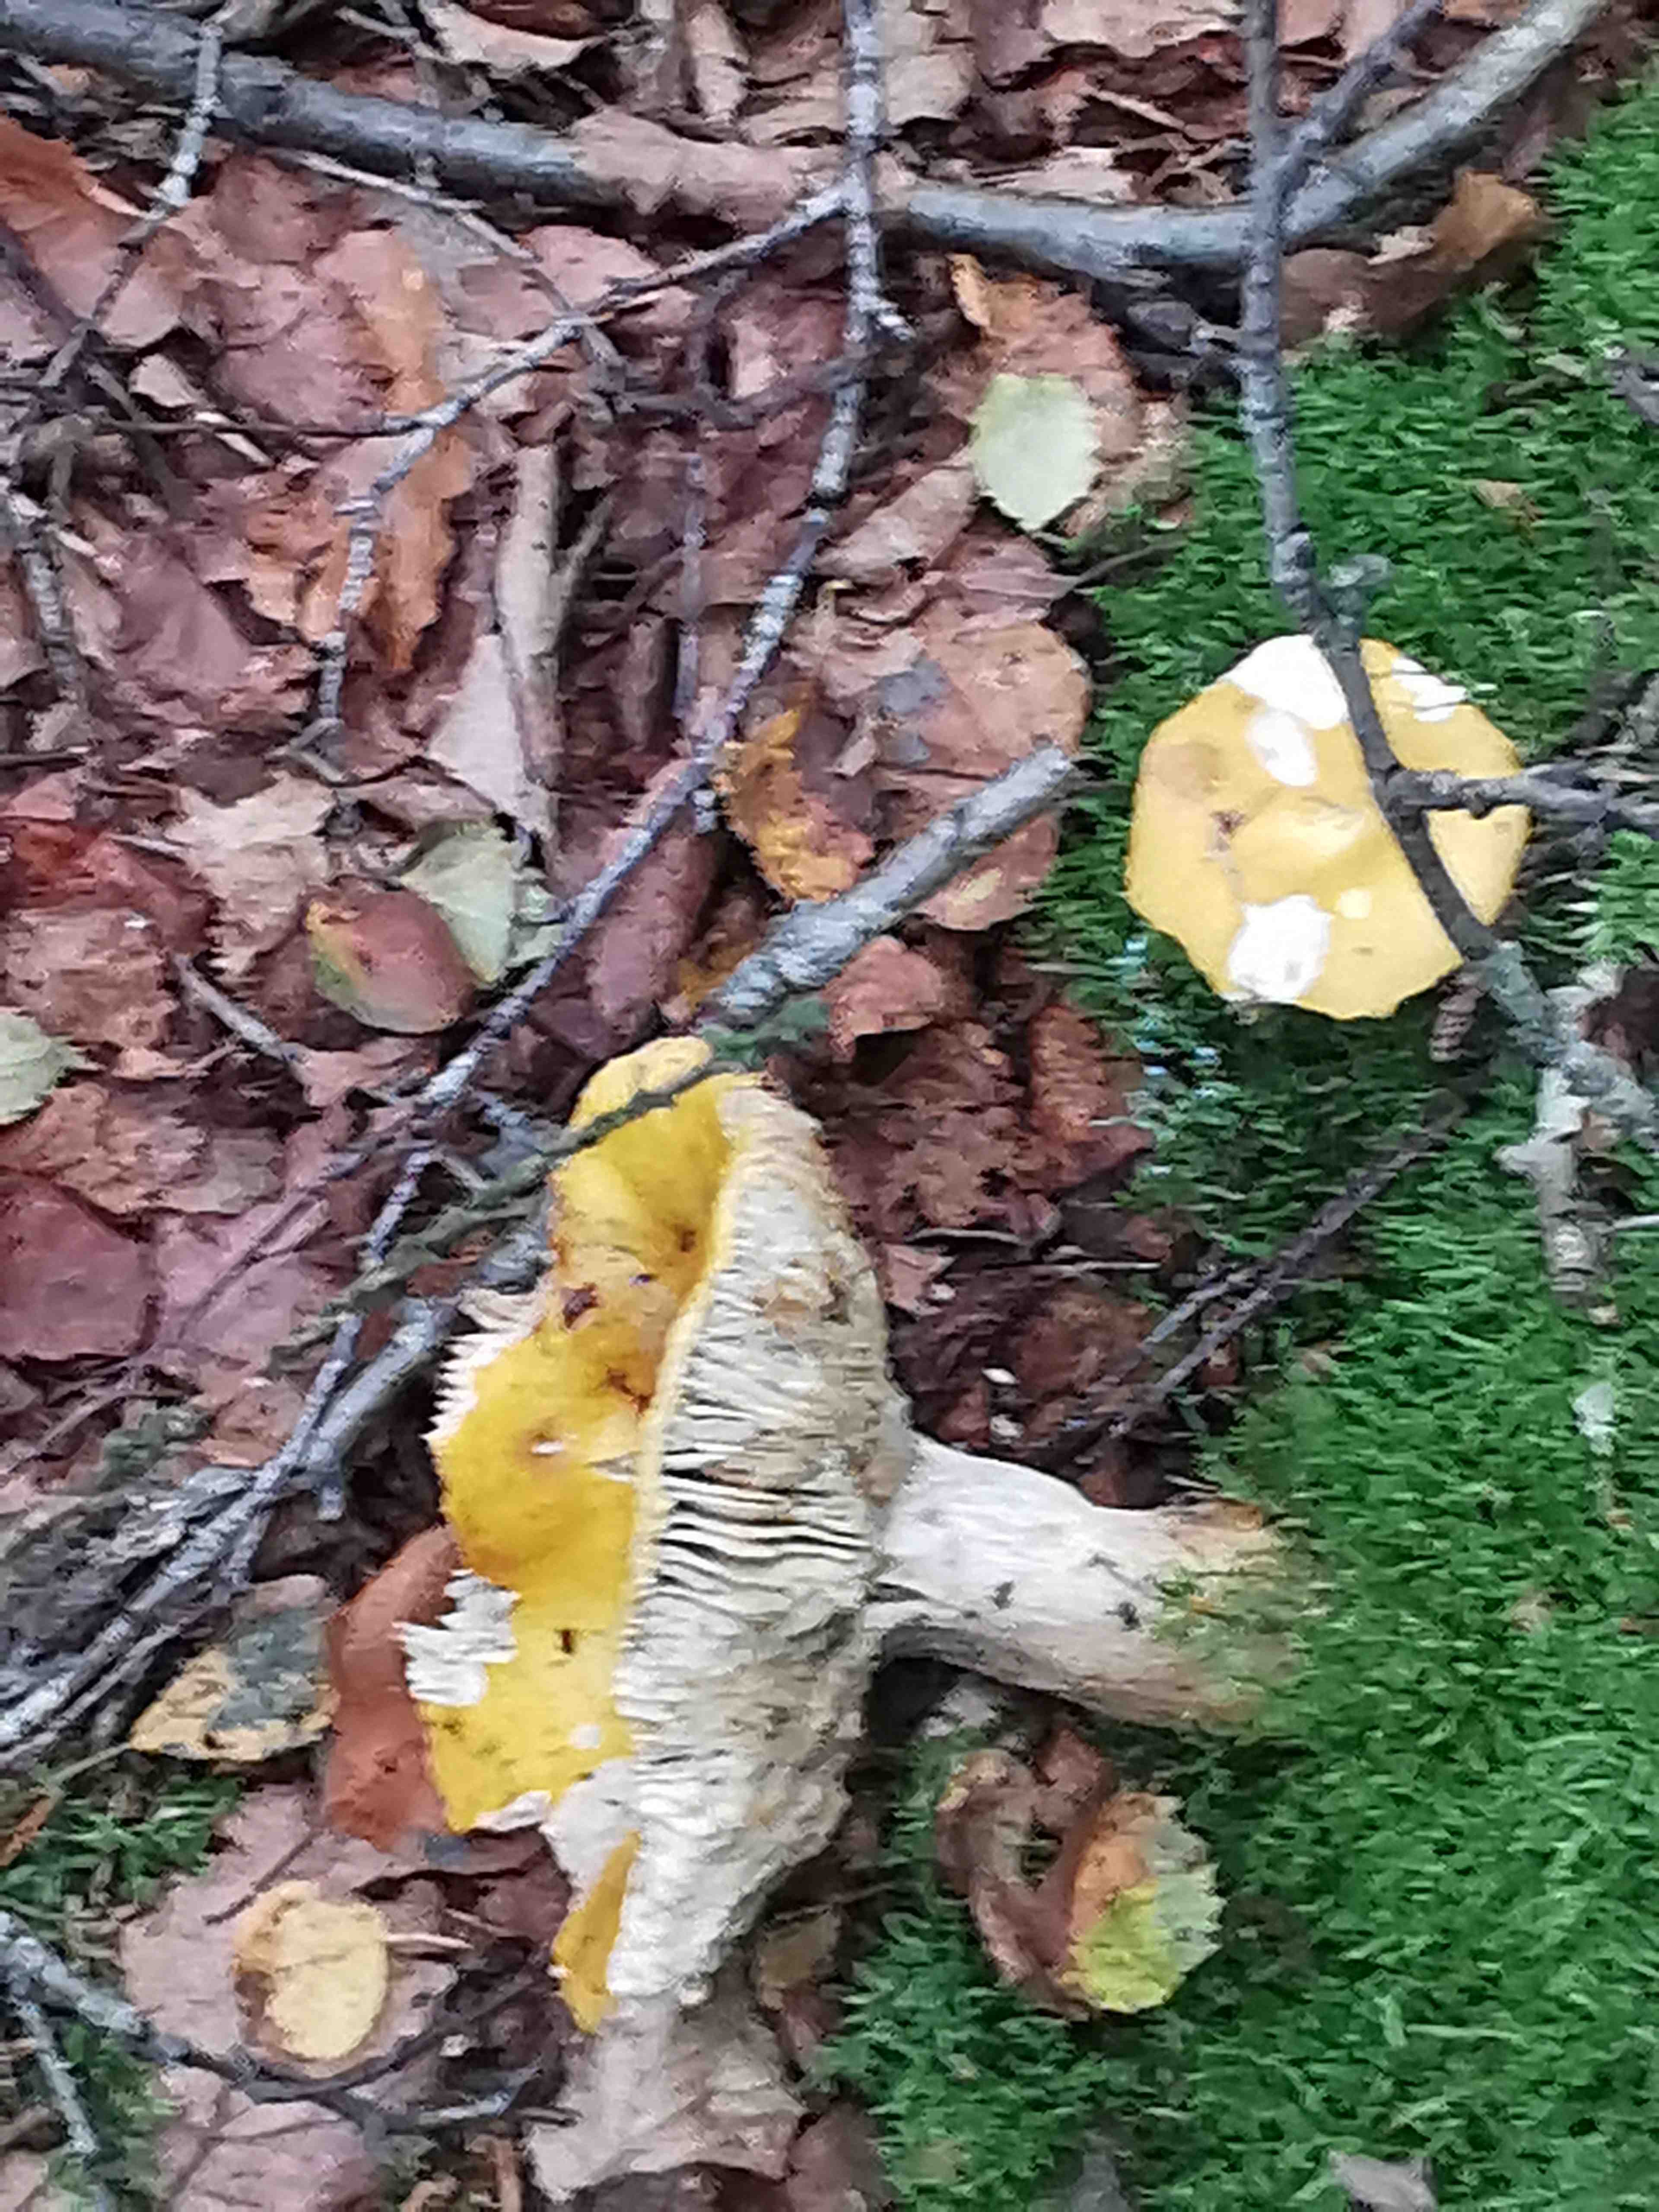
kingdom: Fungi
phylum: Basidiomycota
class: Agaricomycetes
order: Russulales
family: Russulaceae
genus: Russula
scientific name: Russula claroflava
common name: birke-skørhat
